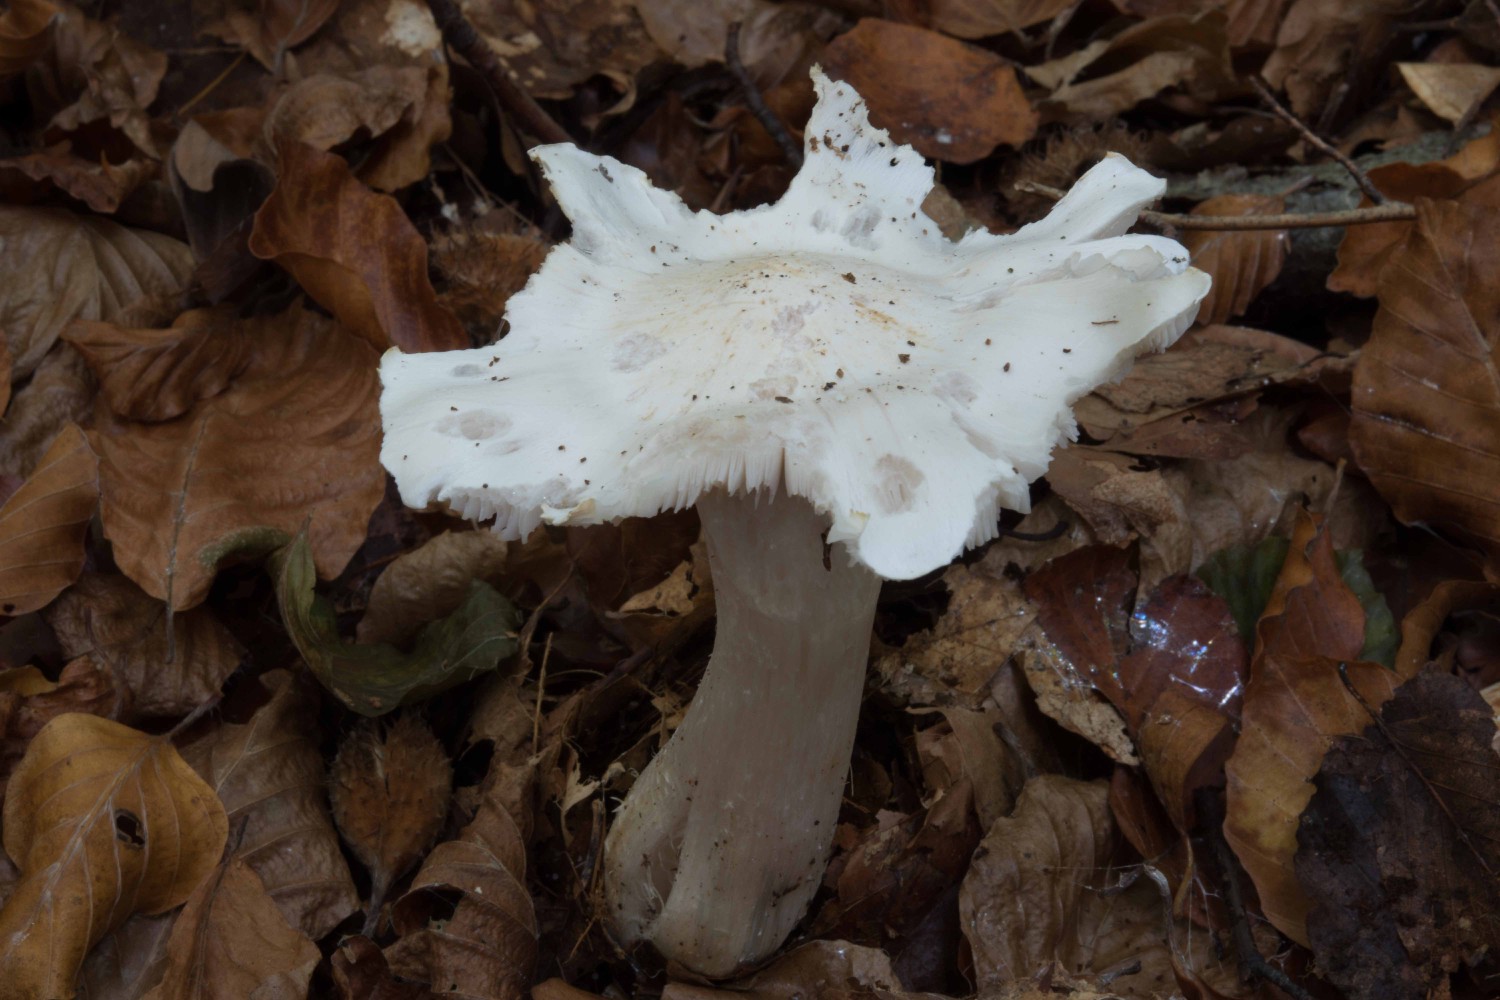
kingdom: Fungi
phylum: Basidiomycota
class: Agaricomycetes
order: Agaricales
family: Tricholomataceae
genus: Tricholoma
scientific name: Tricholoma columbetta
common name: silke-ridderhat
